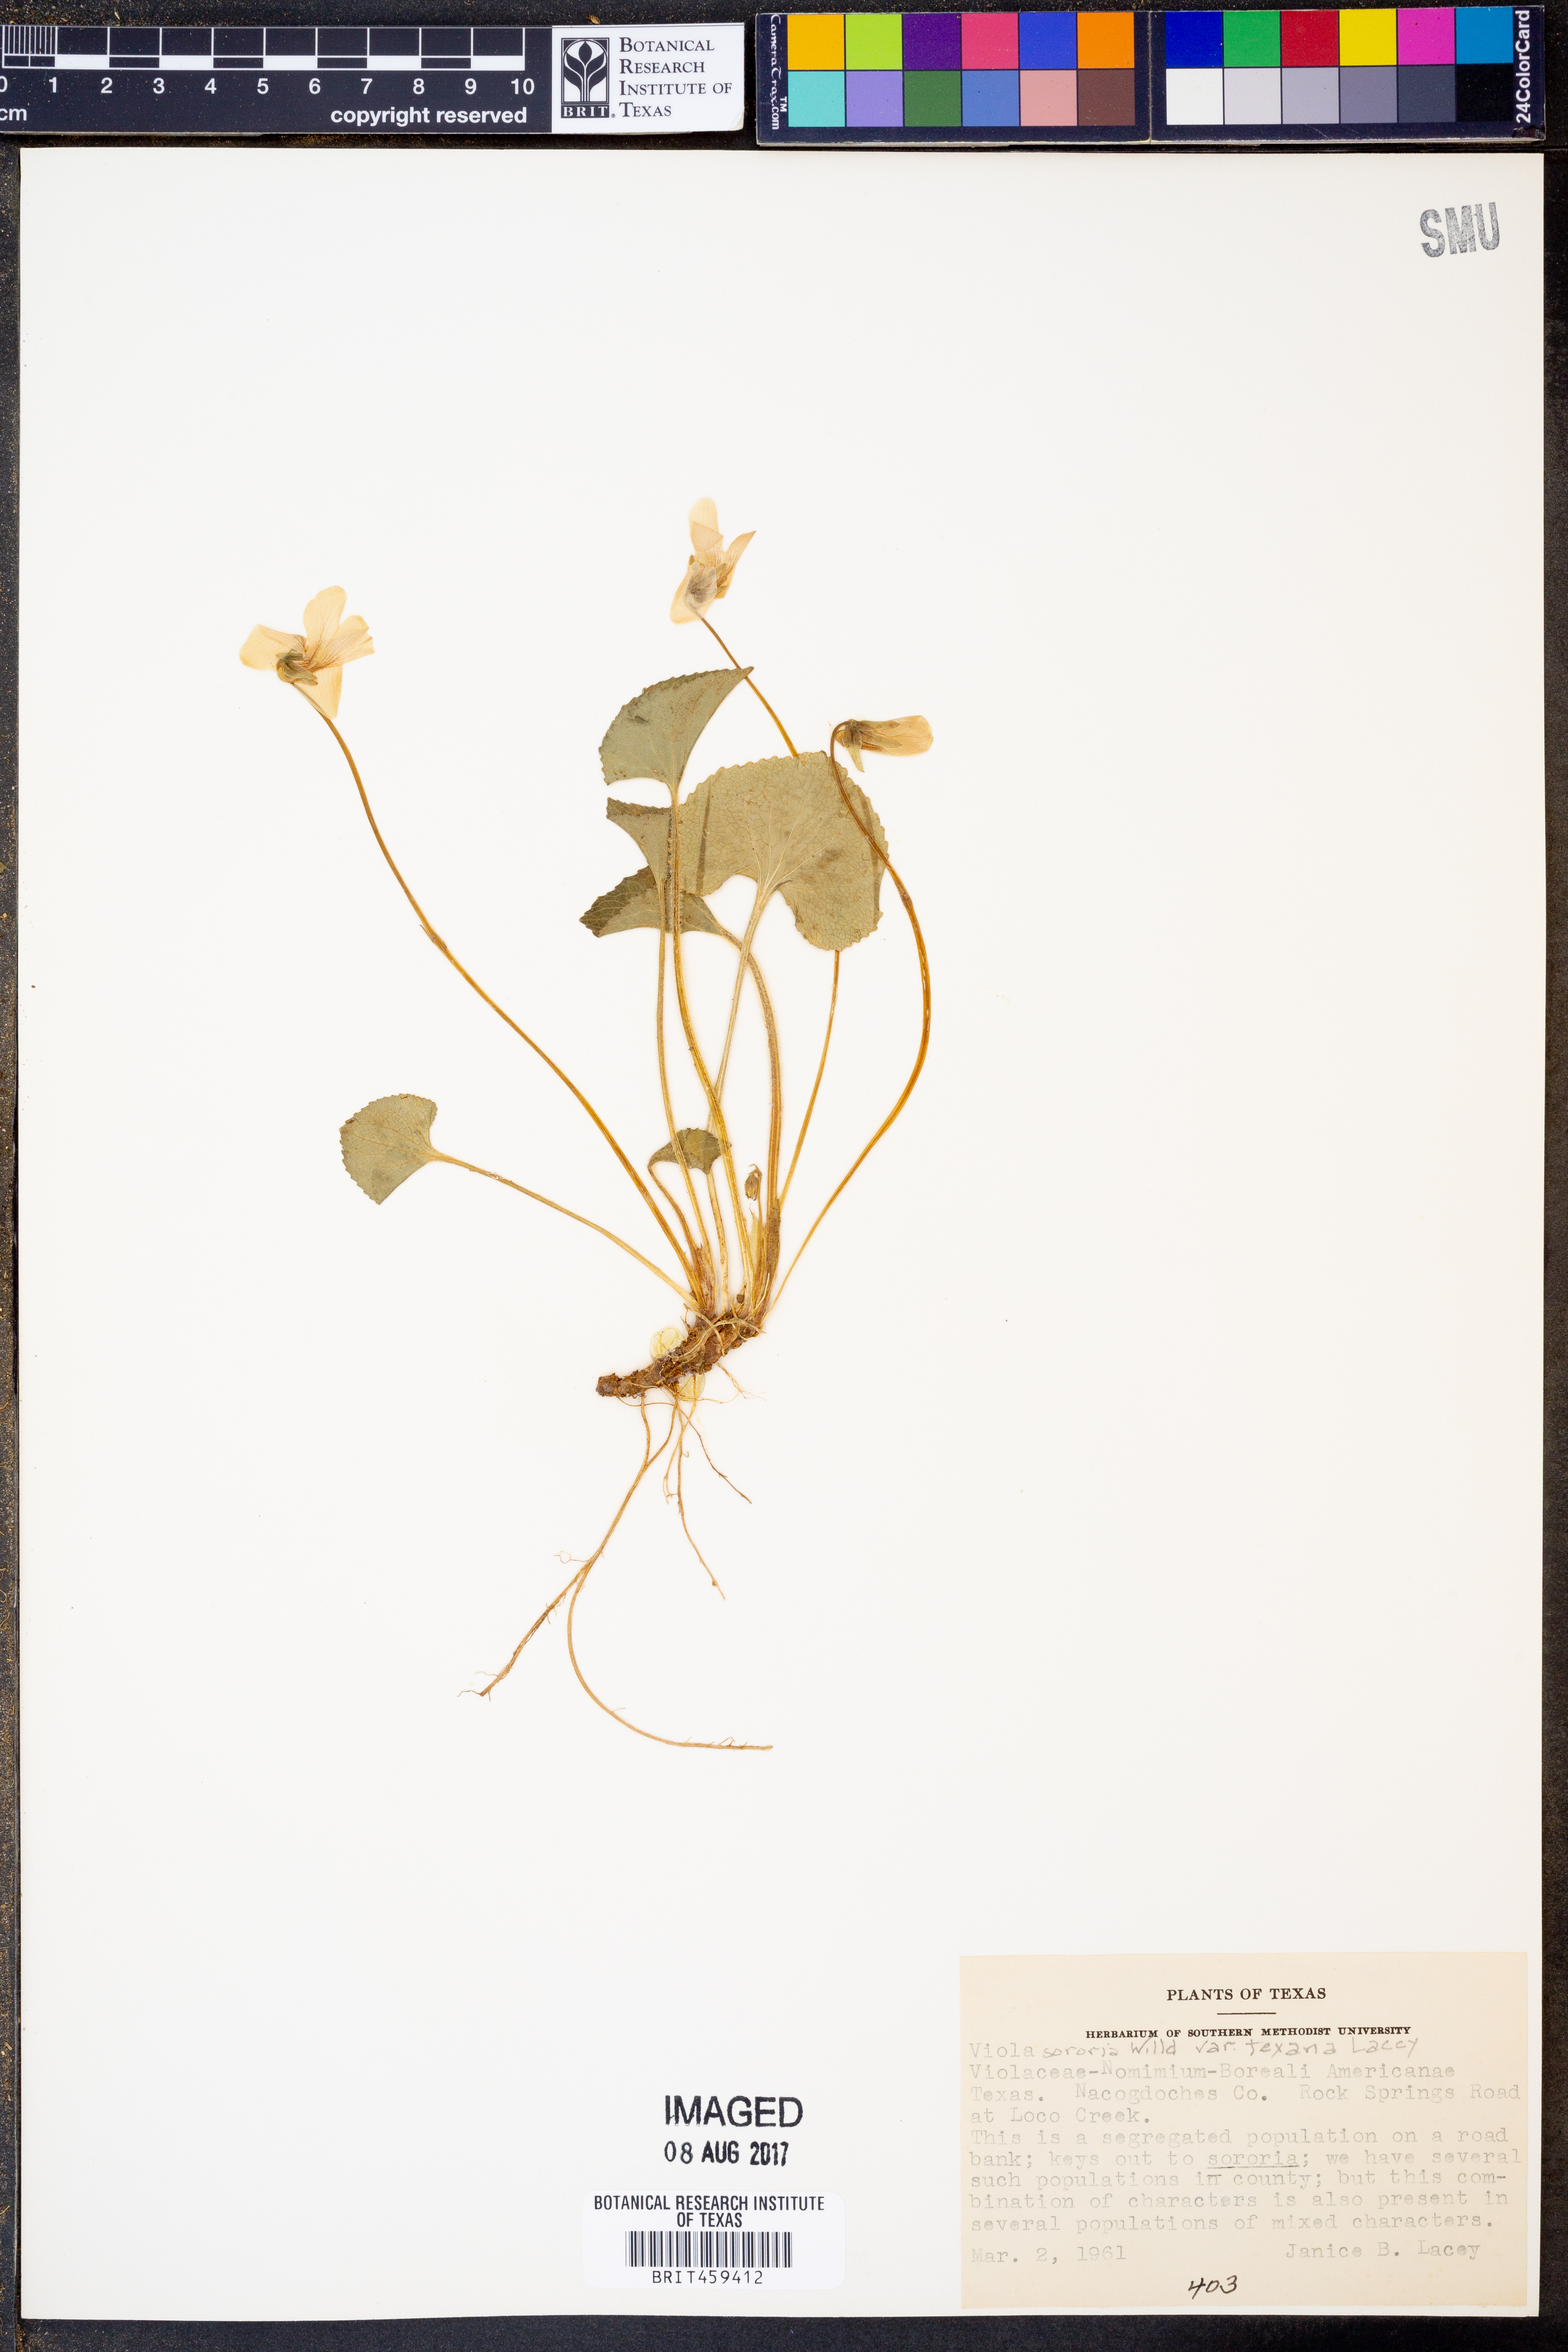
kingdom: Plantae
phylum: Tracheophyta
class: Magnoliopsida
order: Malpighiales
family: Violaceae
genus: Viola
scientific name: Viola sororia
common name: Dooryard violet
